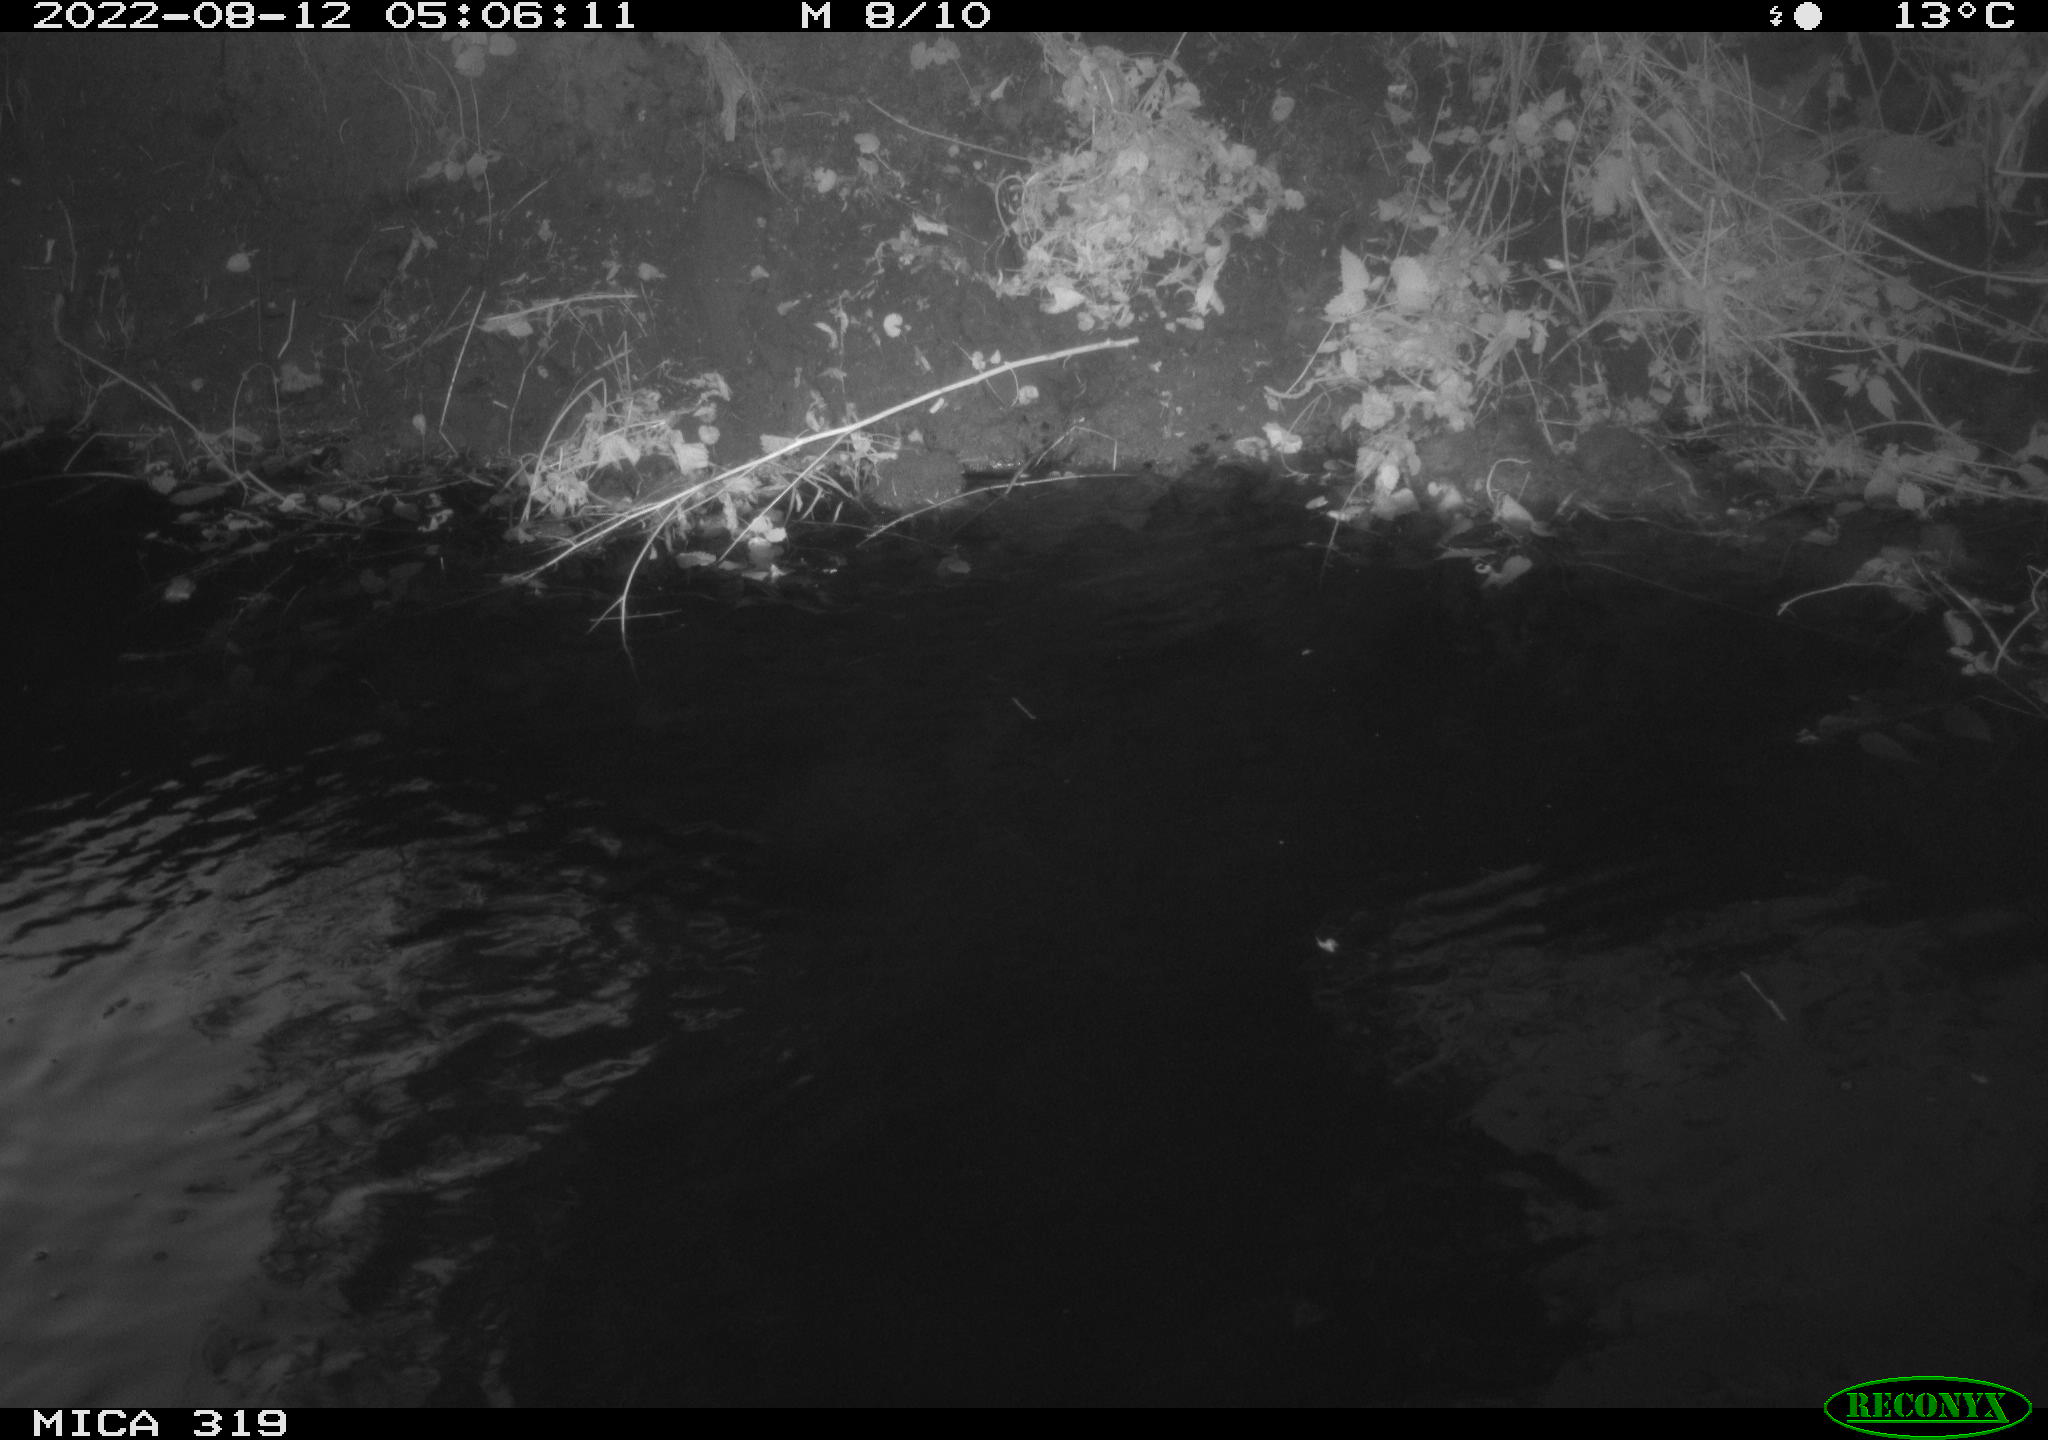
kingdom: Animalia
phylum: Chordata
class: Aves
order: Anseriformes
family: Anatidae
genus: Anas
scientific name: Anas
